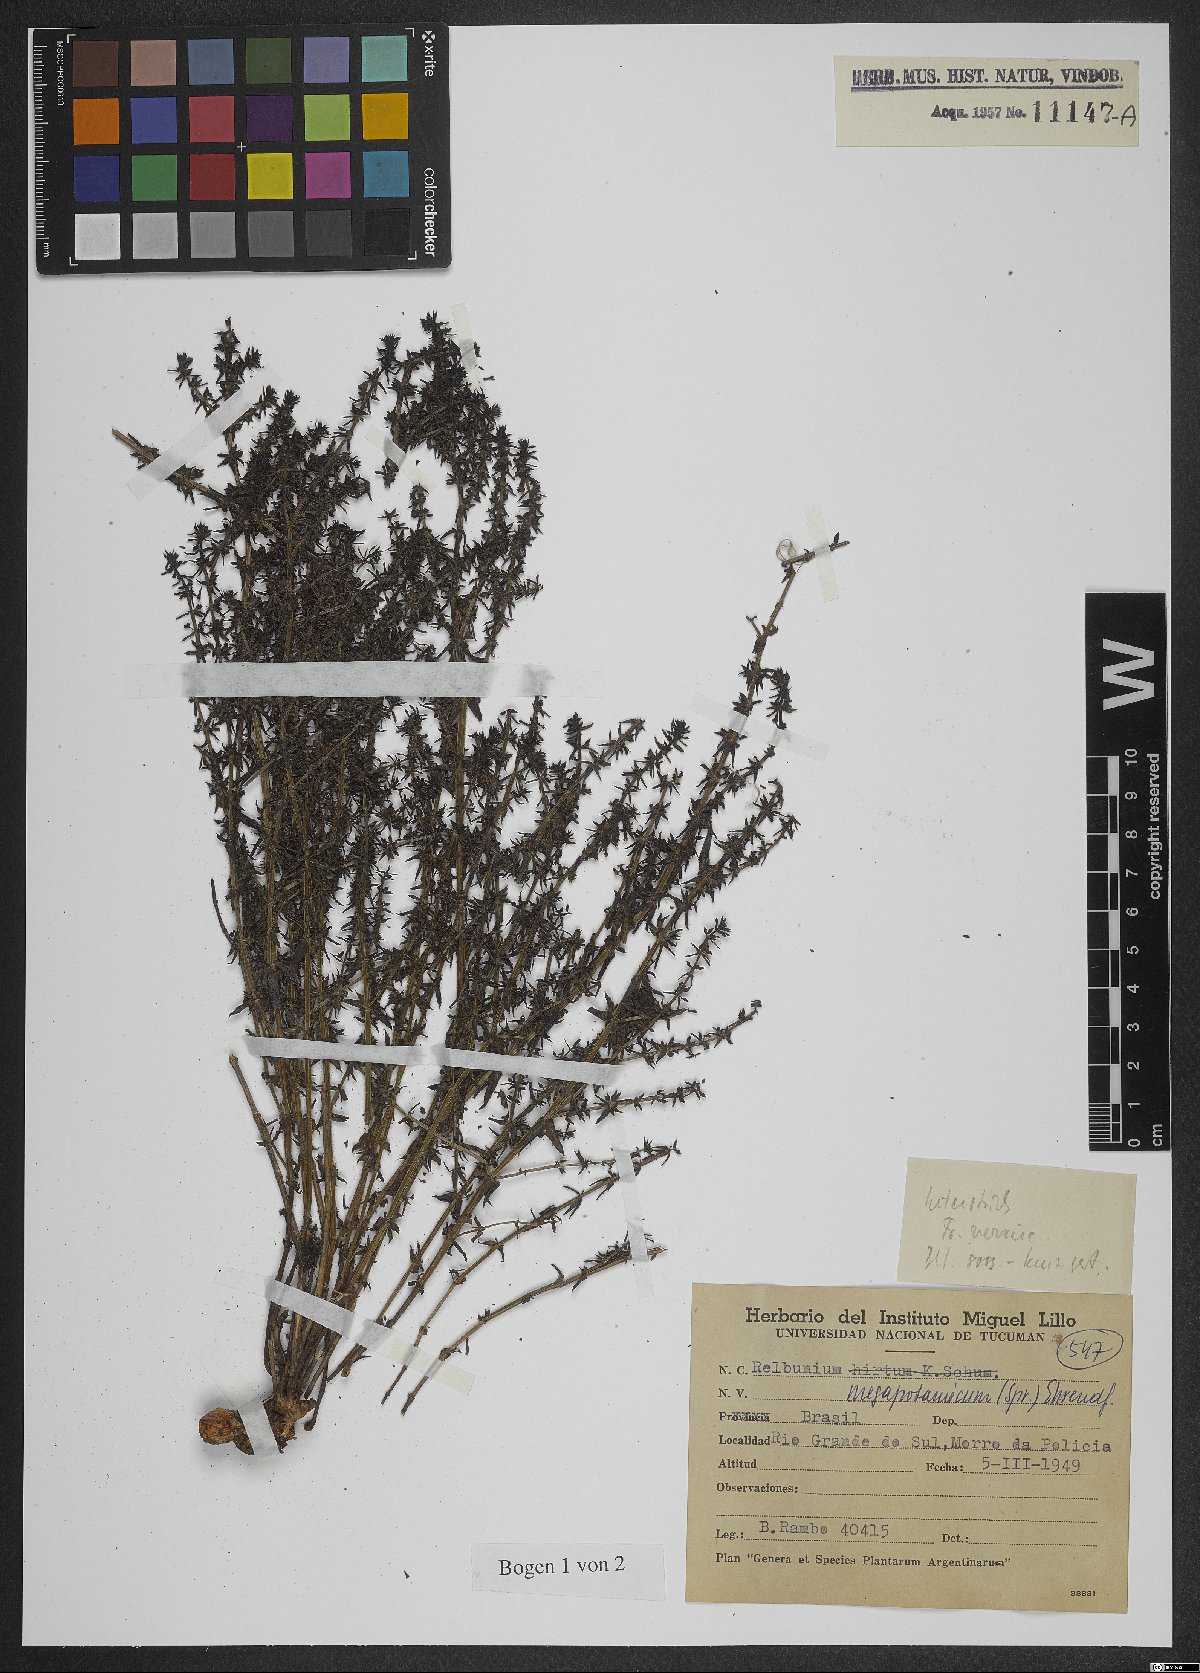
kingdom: Plantae
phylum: Tracheophyta
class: Magnoliopsida
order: Gentianales
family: Rubiaceae
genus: Galium
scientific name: Galium megapotamicum
